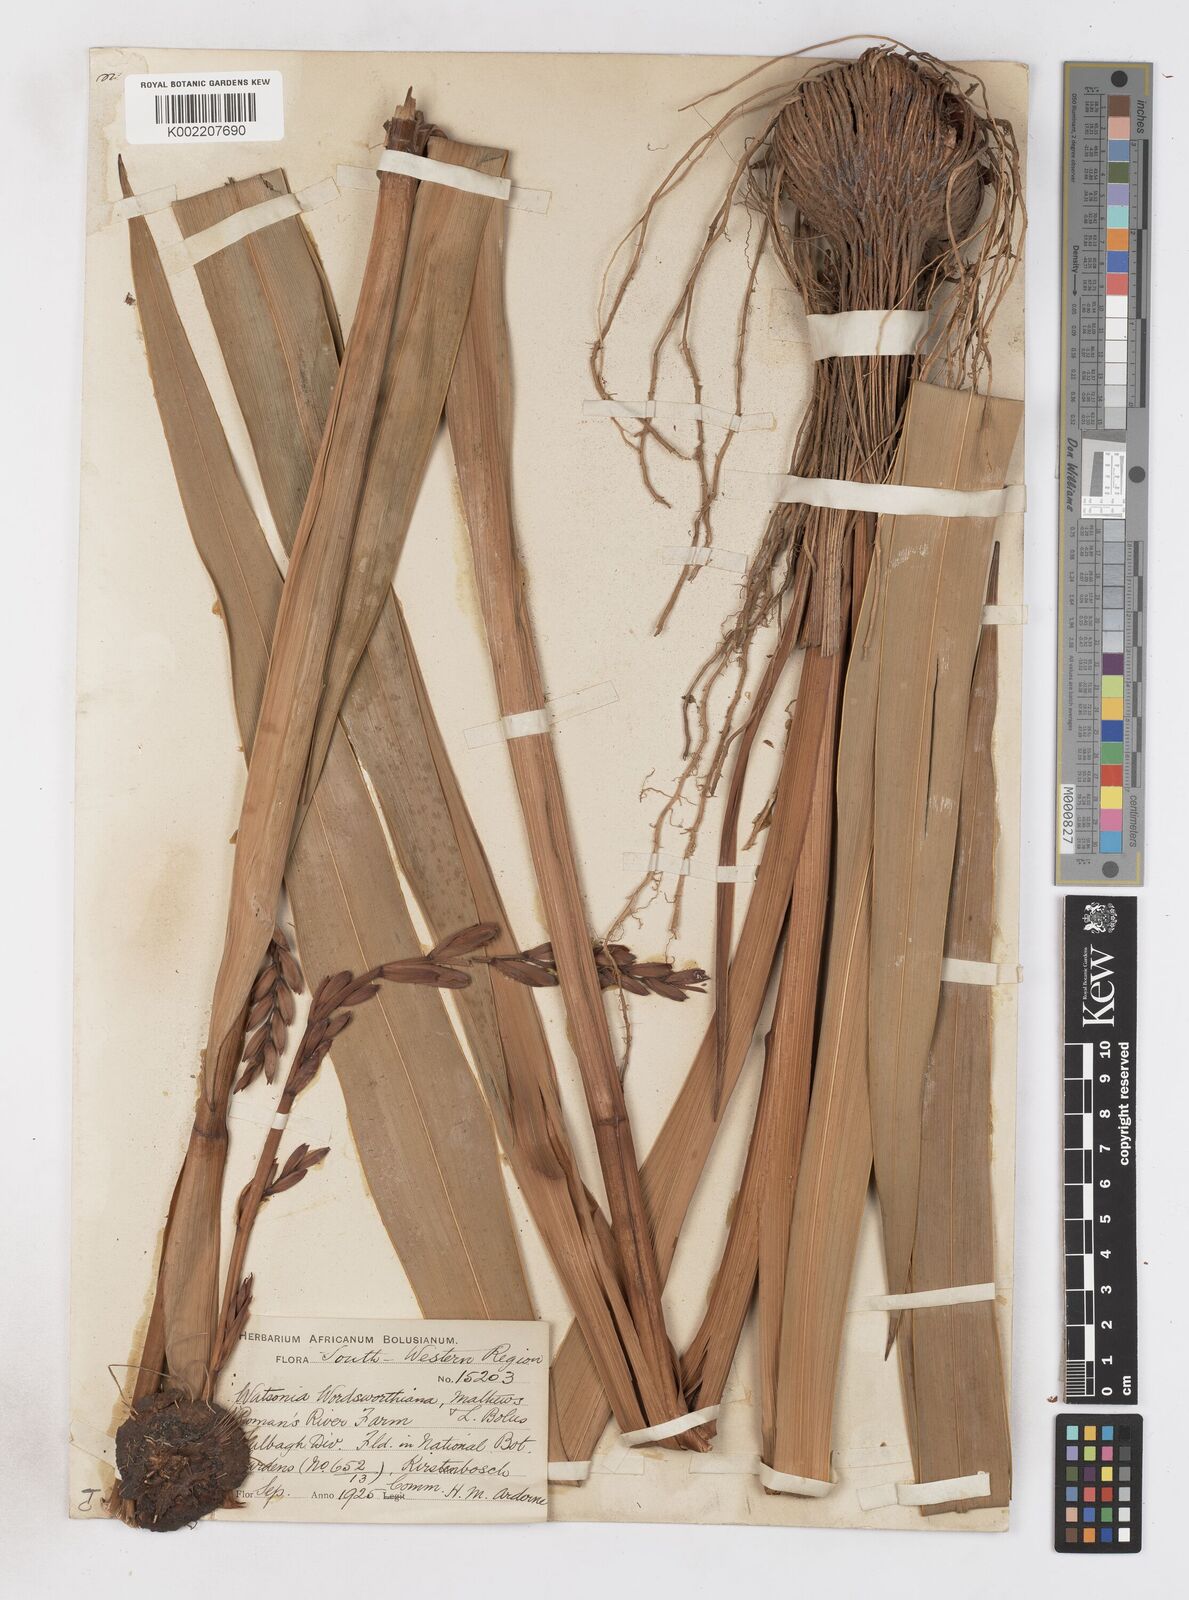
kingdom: Plantae
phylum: Tracheophyta
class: Liliopsida
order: Asparagales
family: Iridaceae
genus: Watsonia
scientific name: Watsonia meriana
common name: Bulbil bugle-lily
